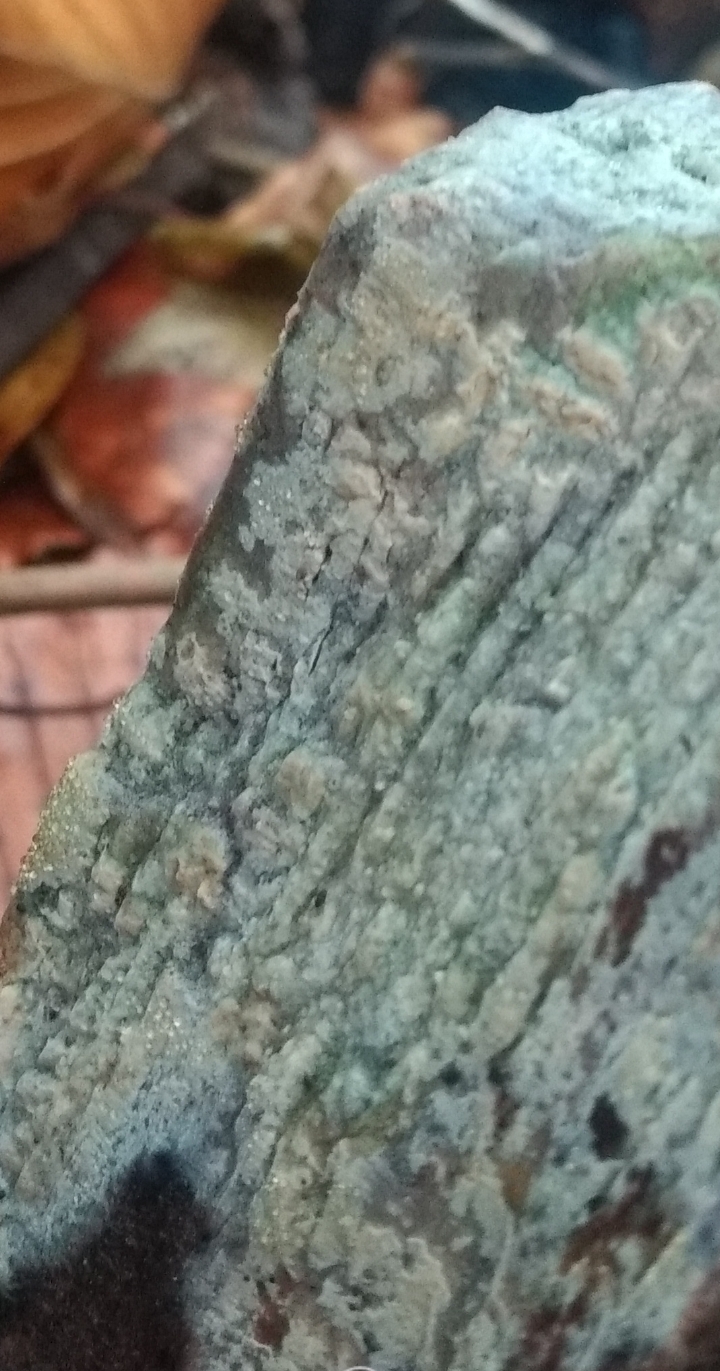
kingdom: Fungi
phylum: Basidiomycota
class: Agaricomycetes
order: Corticiales
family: Corticiaceae
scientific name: Corticiaceae
